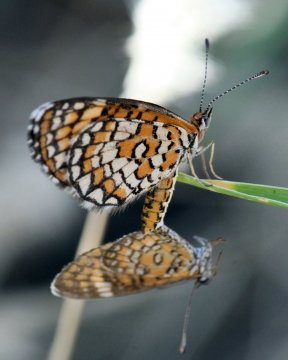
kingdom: Animalia
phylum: Arthropoda
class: Insecta
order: Lepidoptera
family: Nymphalidae
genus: Dymasia
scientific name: Dymasia dymas
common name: Tiny Checkerspot
